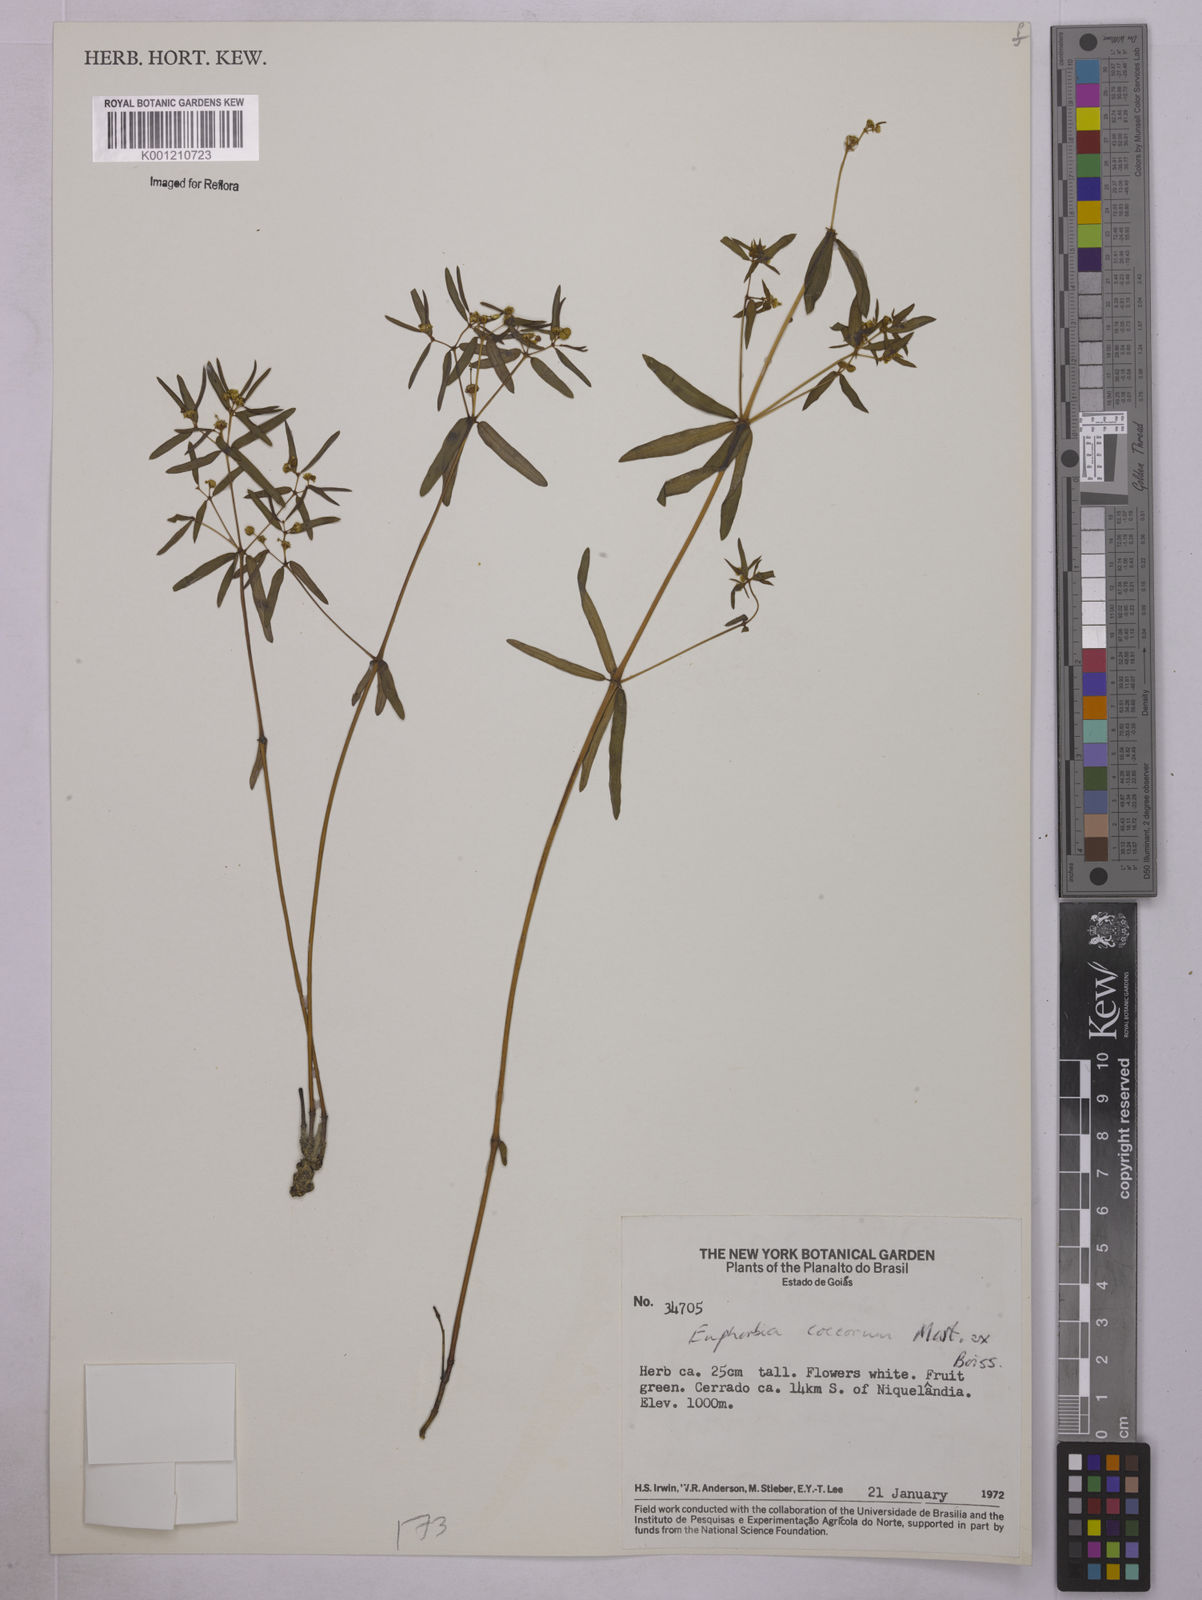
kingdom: Plantae
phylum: Tracheophyta
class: Magnoliopsida
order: Malpighiales
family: Euphorbiaceae
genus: Euphorbia
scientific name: Euphorbia potentilloides
